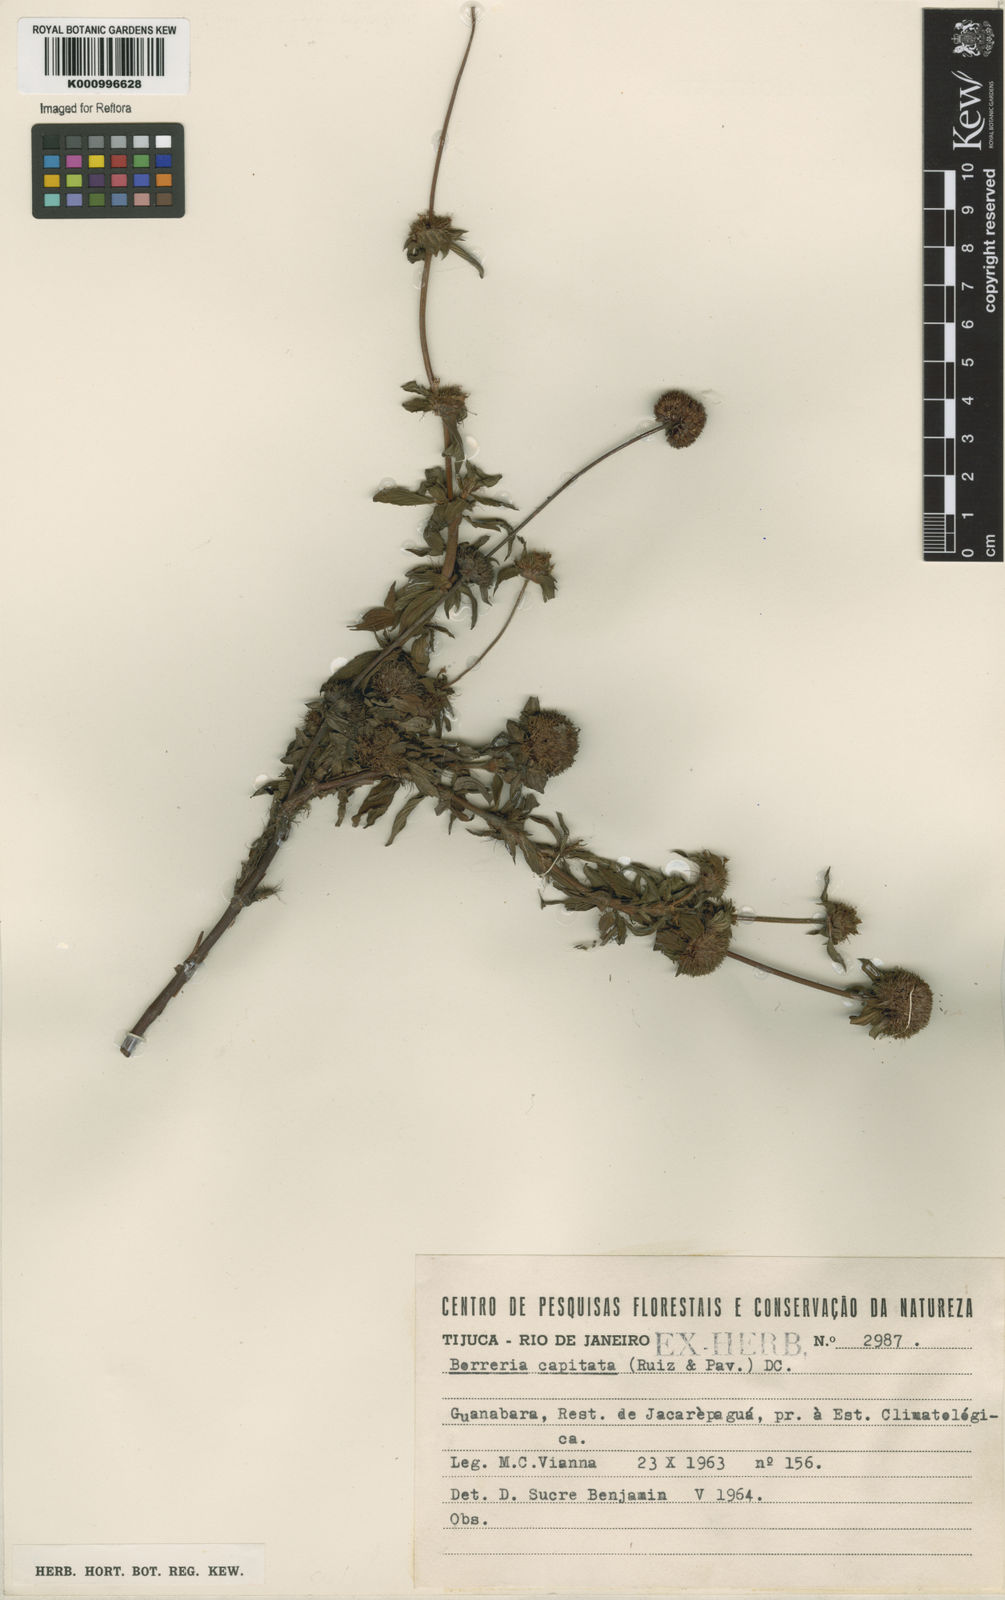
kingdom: Plantae
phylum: Tracheophyta
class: Magnoliopsida
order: Gentianales
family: Rubiaceae
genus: Spermacoce
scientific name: Spermacoce capitata
